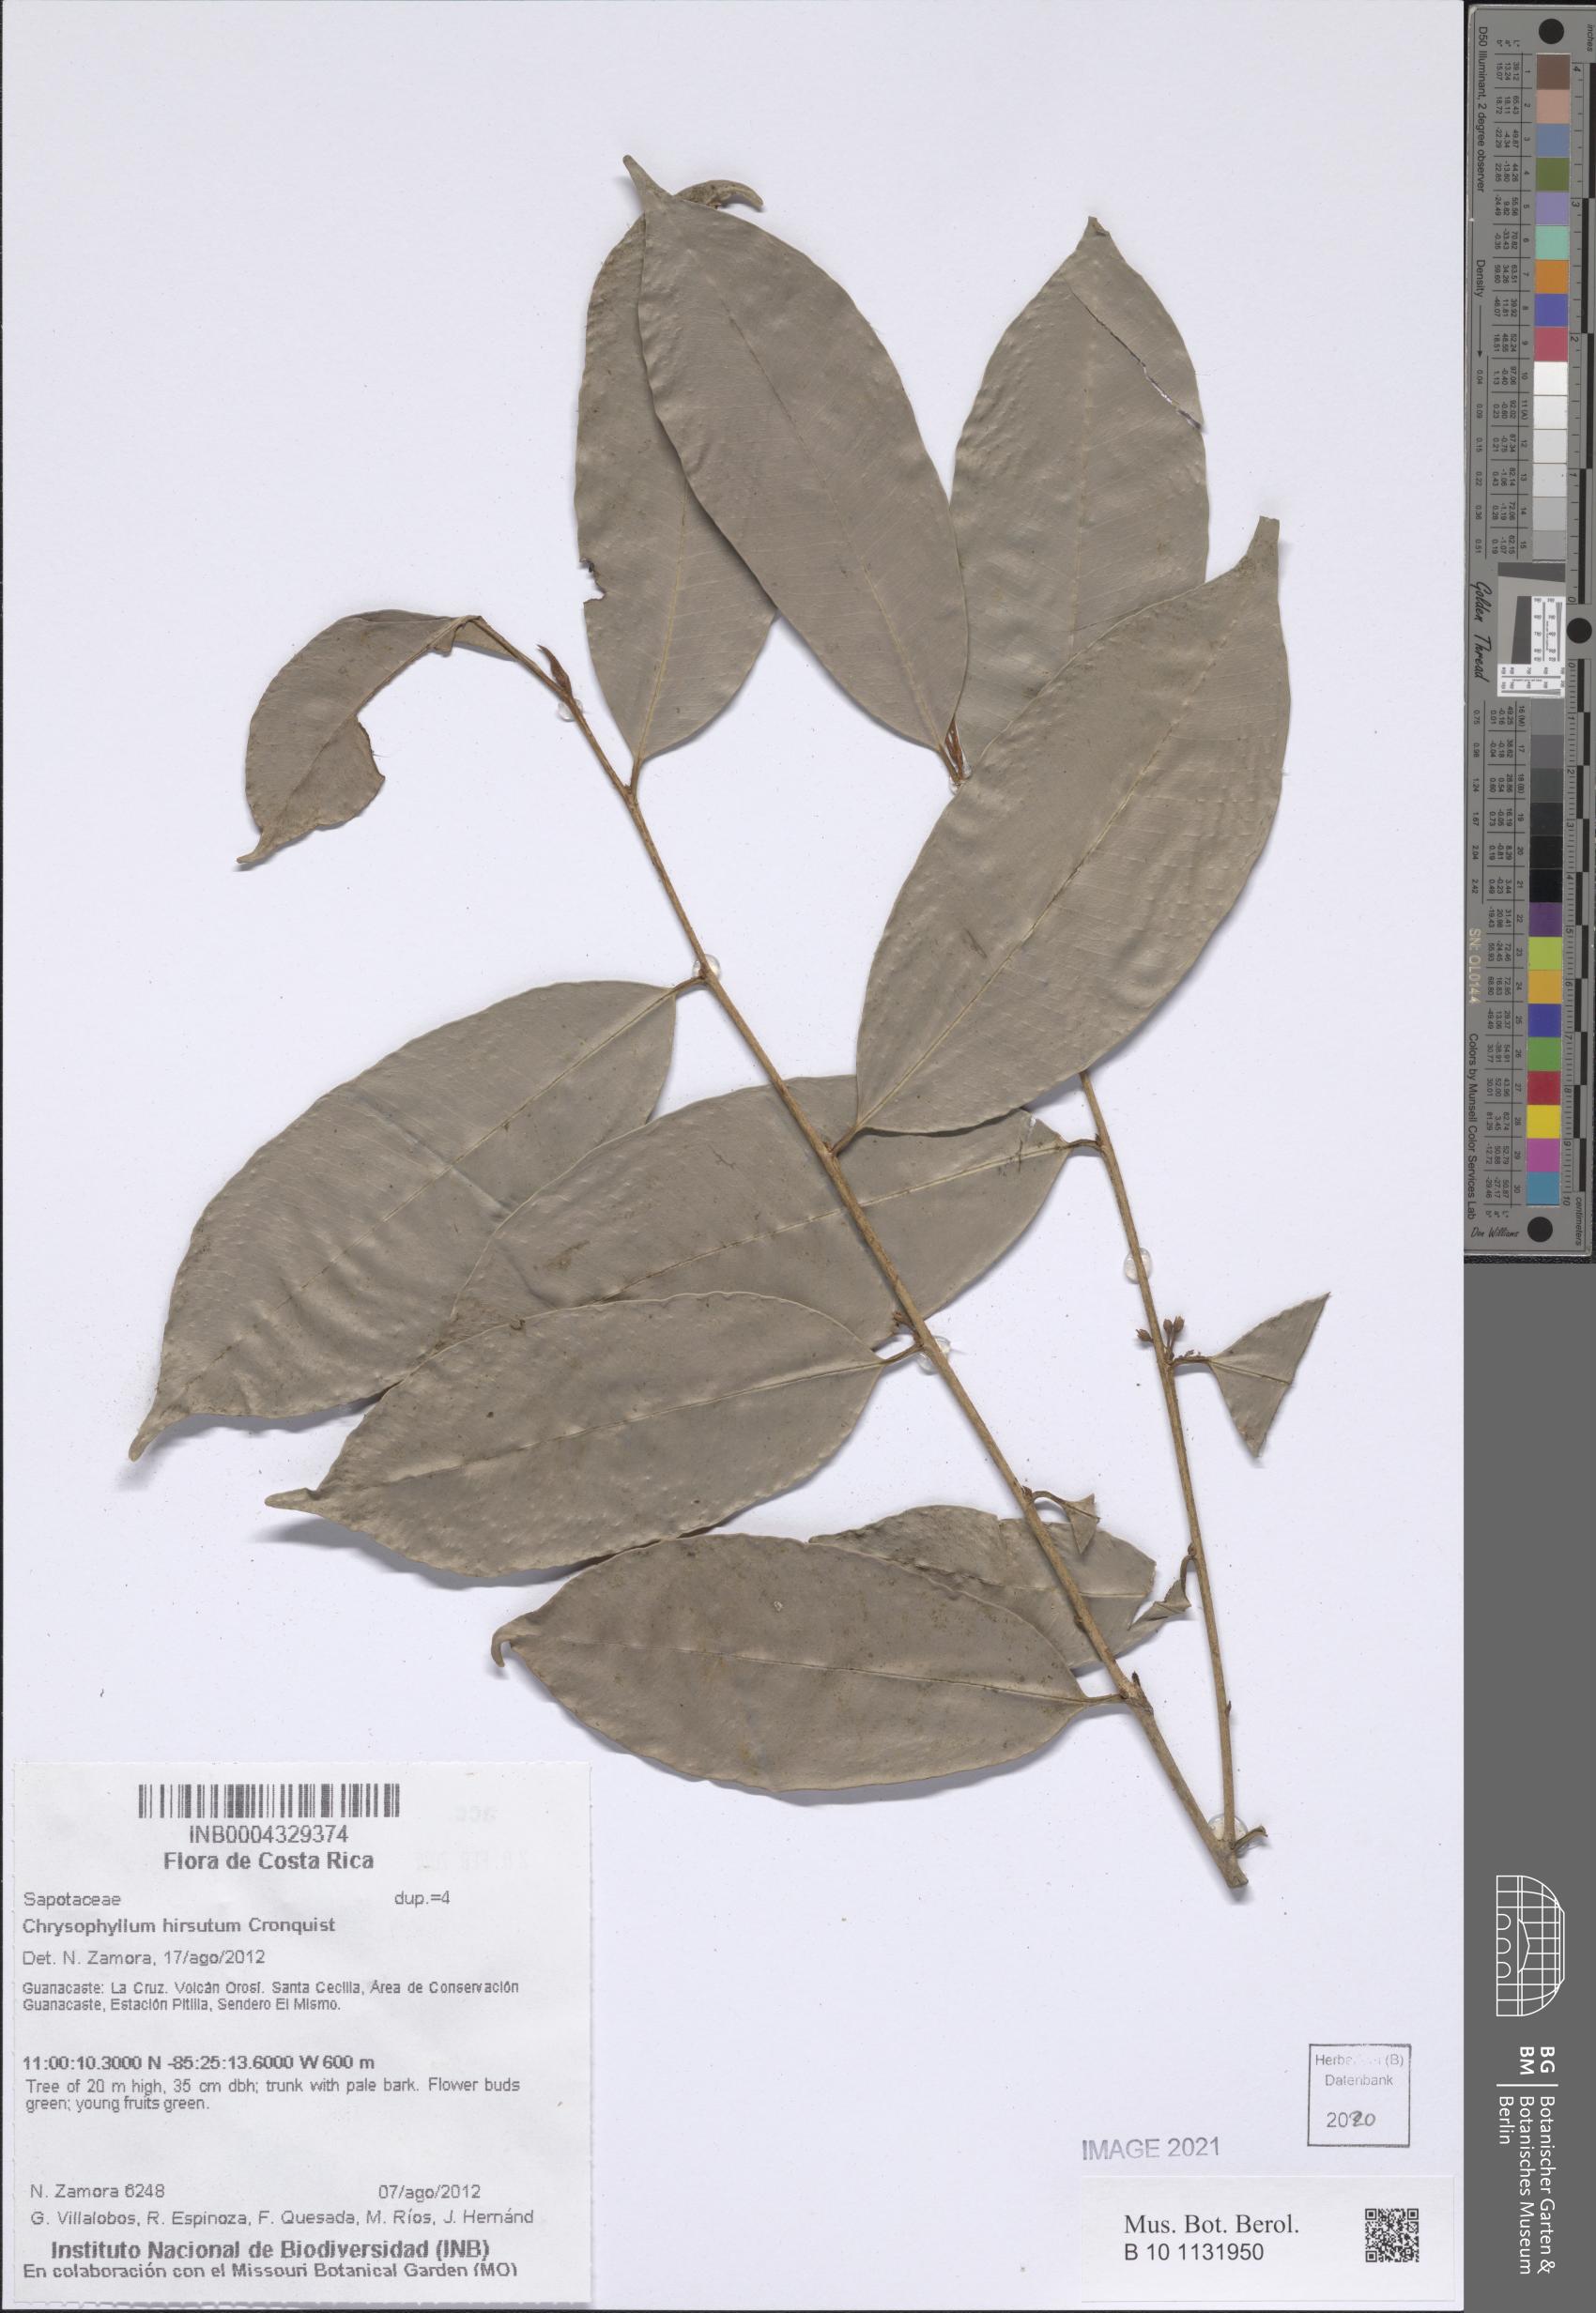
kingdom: Plantae
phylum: Tracheophyta
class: Magnoliopsida
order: Ericales
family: Sapotaceae
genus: Chrysophyllum
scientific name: Chrysophyllum hirsutum
